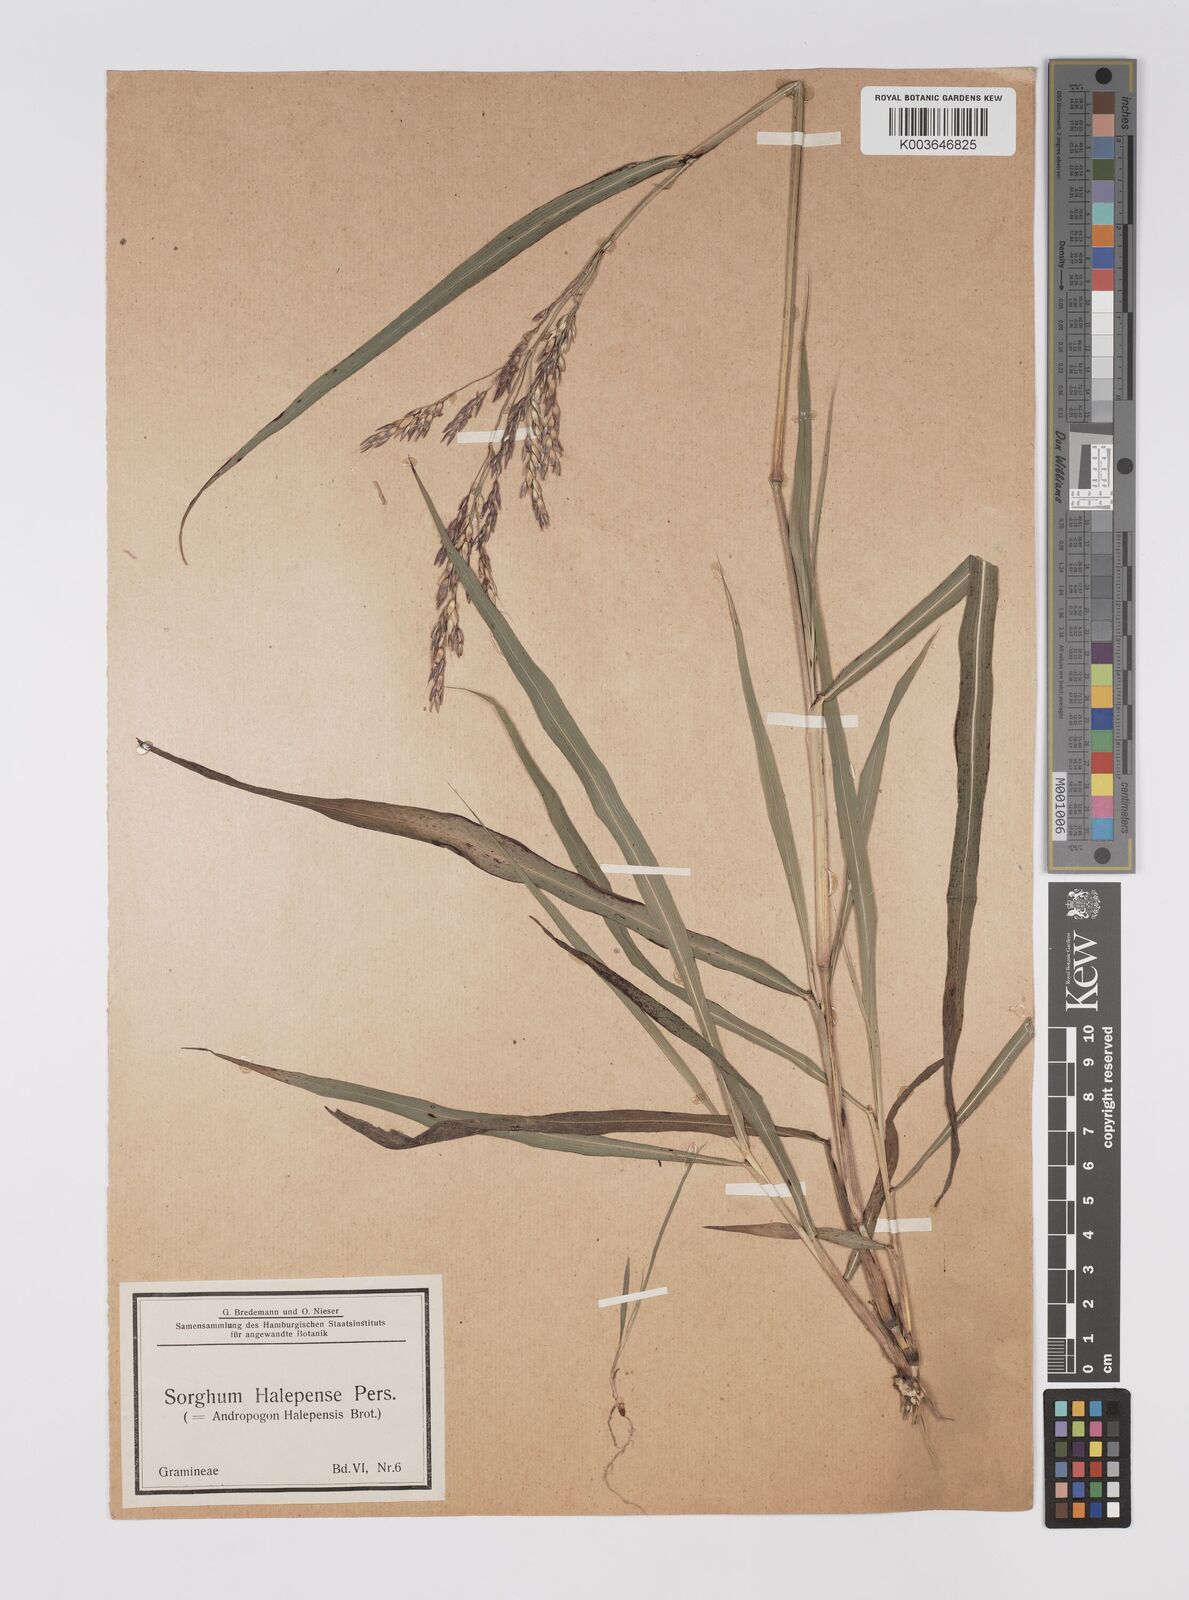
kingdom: Plantae
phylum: Tracheophyta
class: Liliopsida
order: Poales
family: Poaceae
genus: Sorghum
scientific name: Sorghum halepense
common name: Johnson-grass
